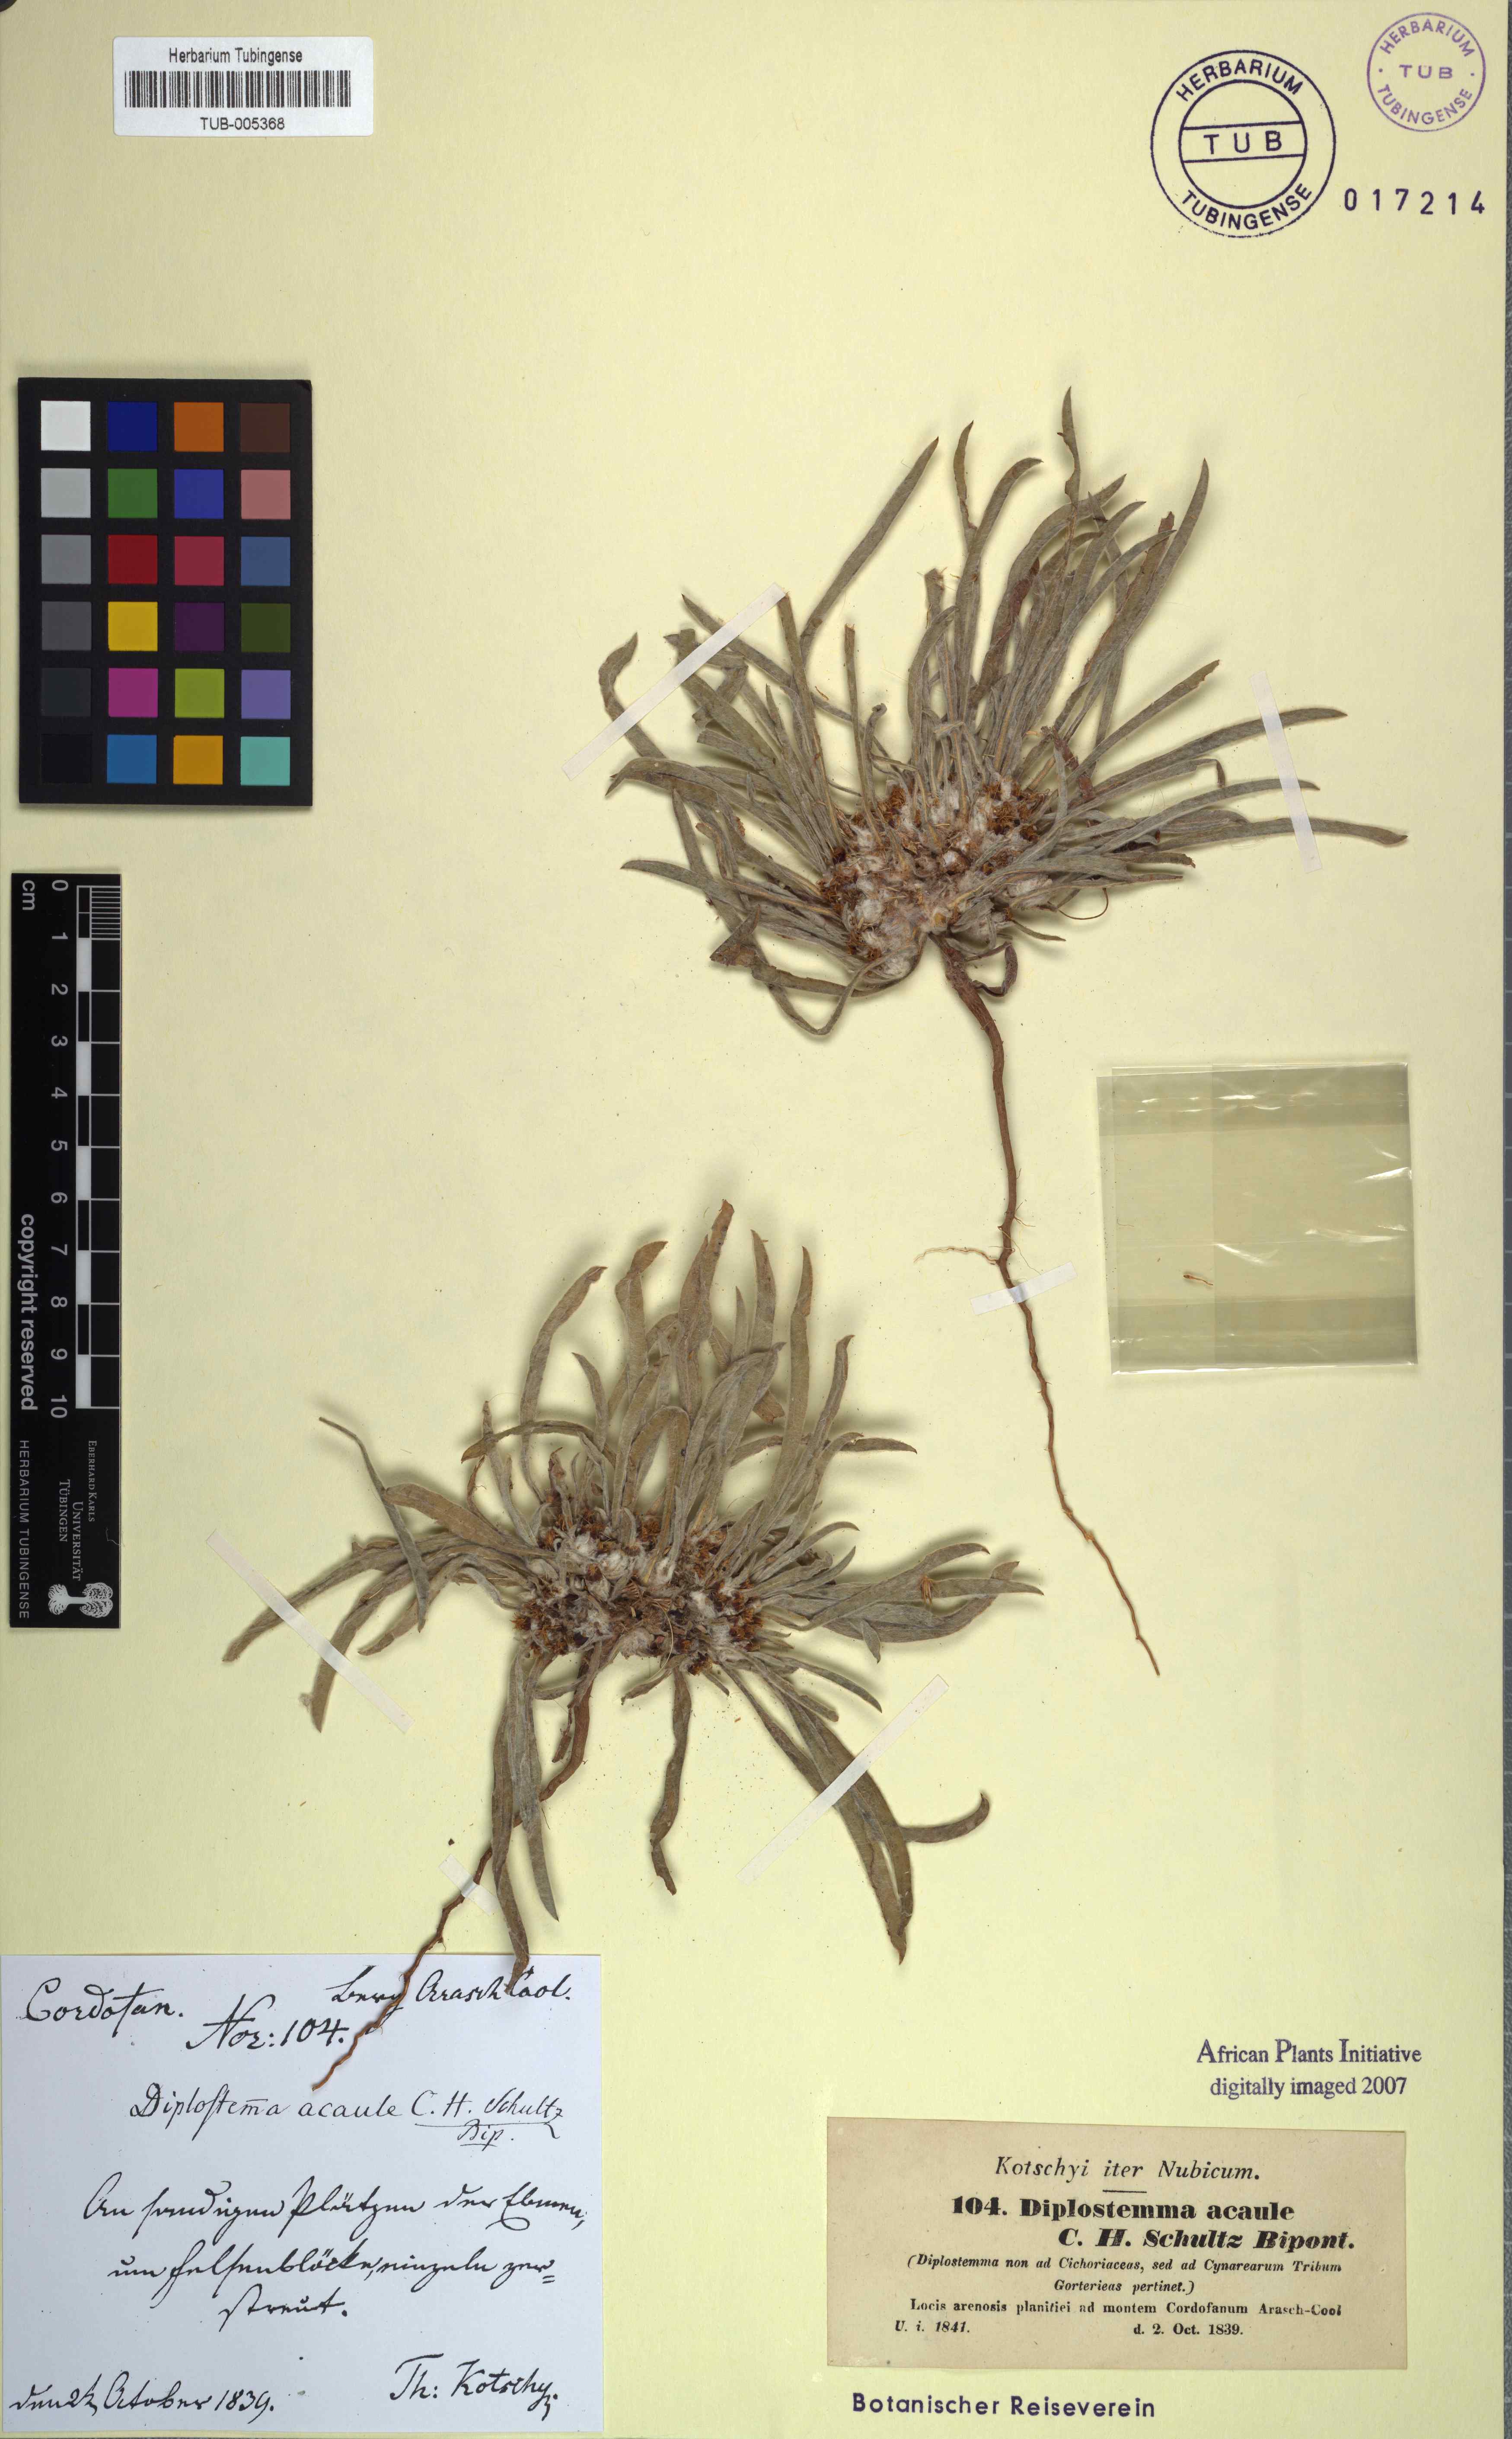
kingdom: Plantae
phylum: Tracheophyta
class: Magnoliopsida
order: Asterales
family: Asteraceae
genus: Geigeria
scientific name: Geigeria acaulis
